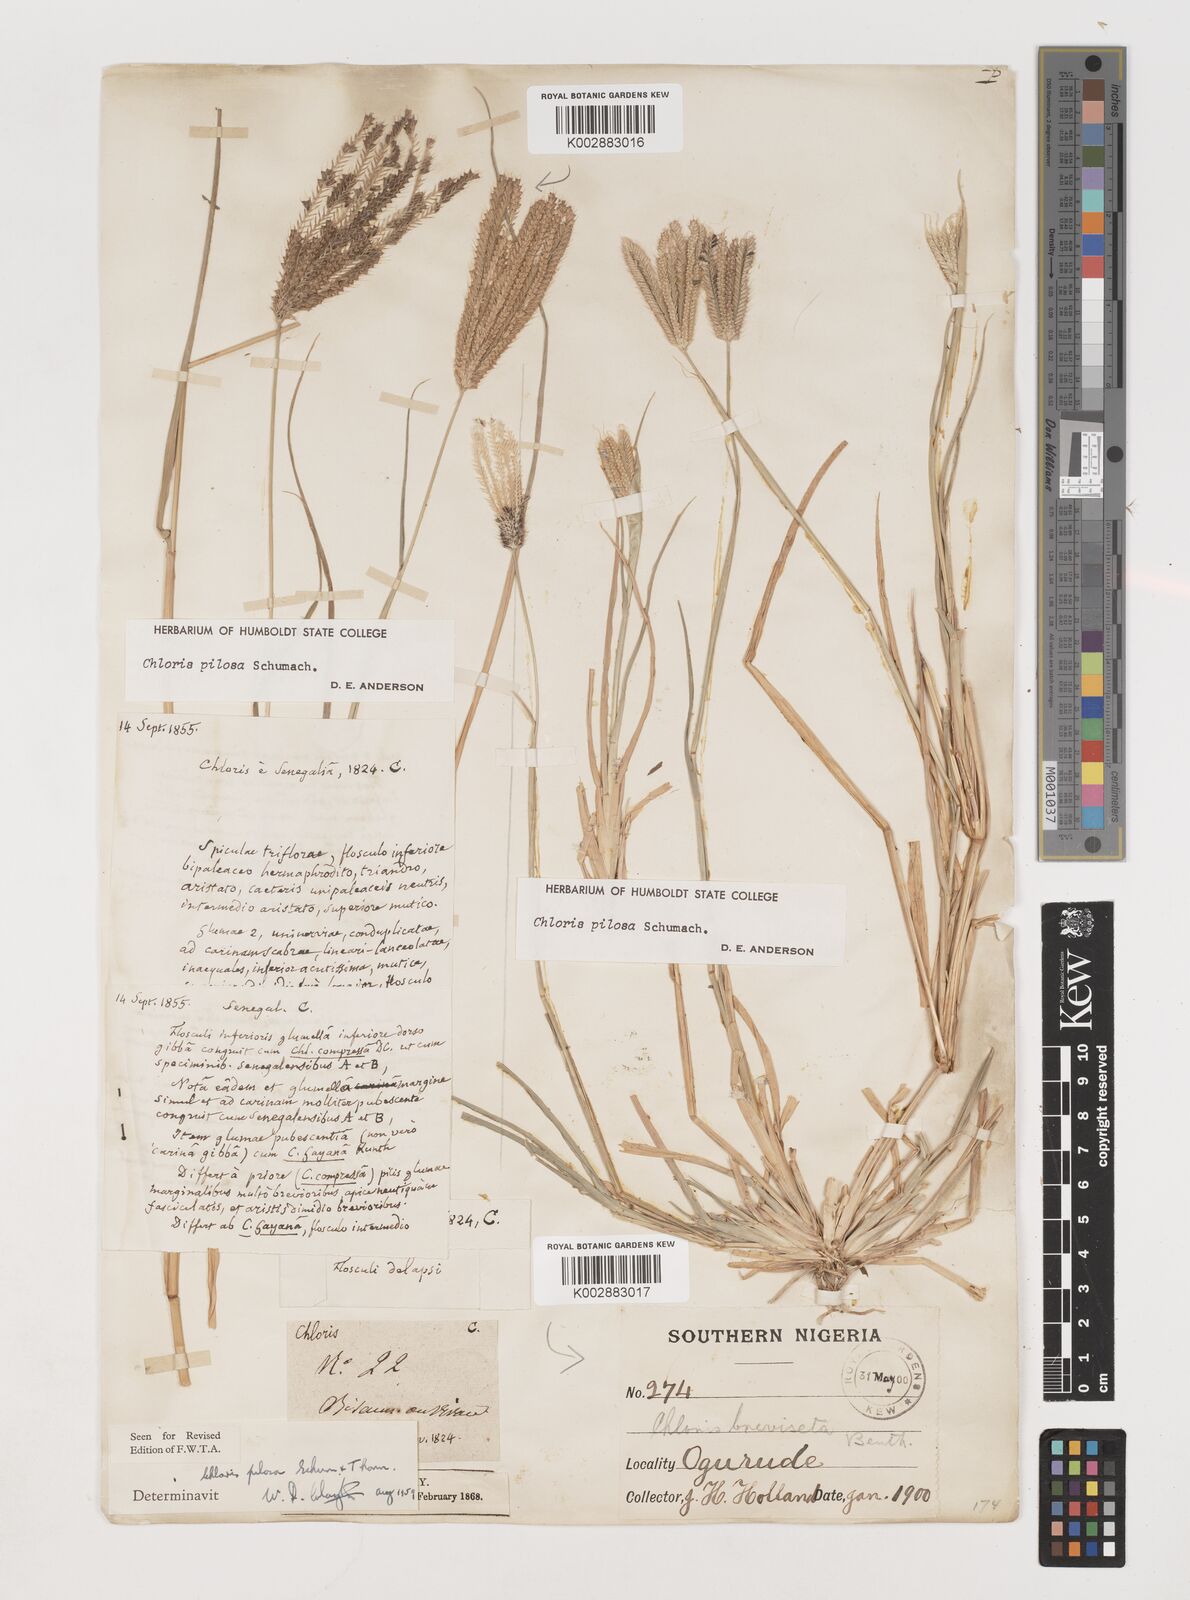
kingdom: Plantae
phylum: Tracheophyta
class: Liliopsida
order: Poales
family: Poaceae
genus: Chloris
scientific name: Chloris pilosa
